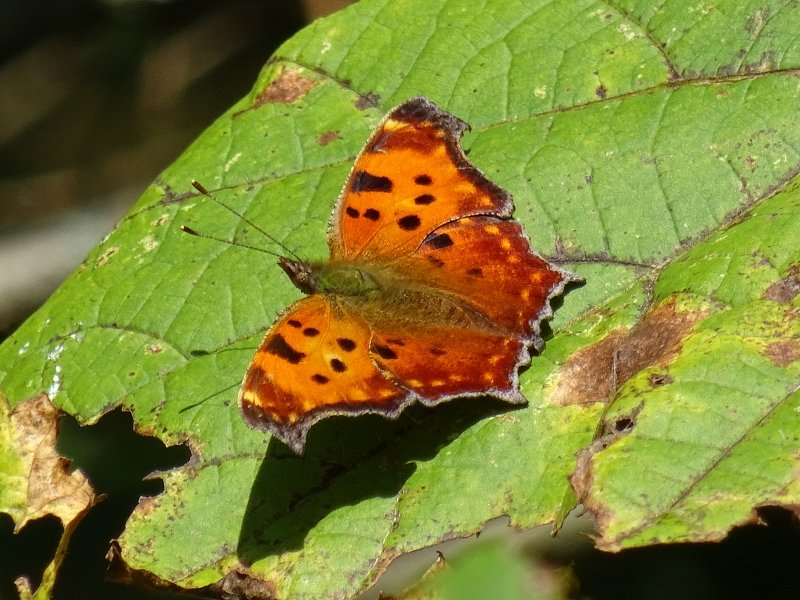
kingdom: Animalia
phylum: Arthropoda
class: Insecta
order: Lepidoptera
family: Nymphalidae
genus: Polygonia
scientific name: Polygonia comma
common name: Eastern Comma
